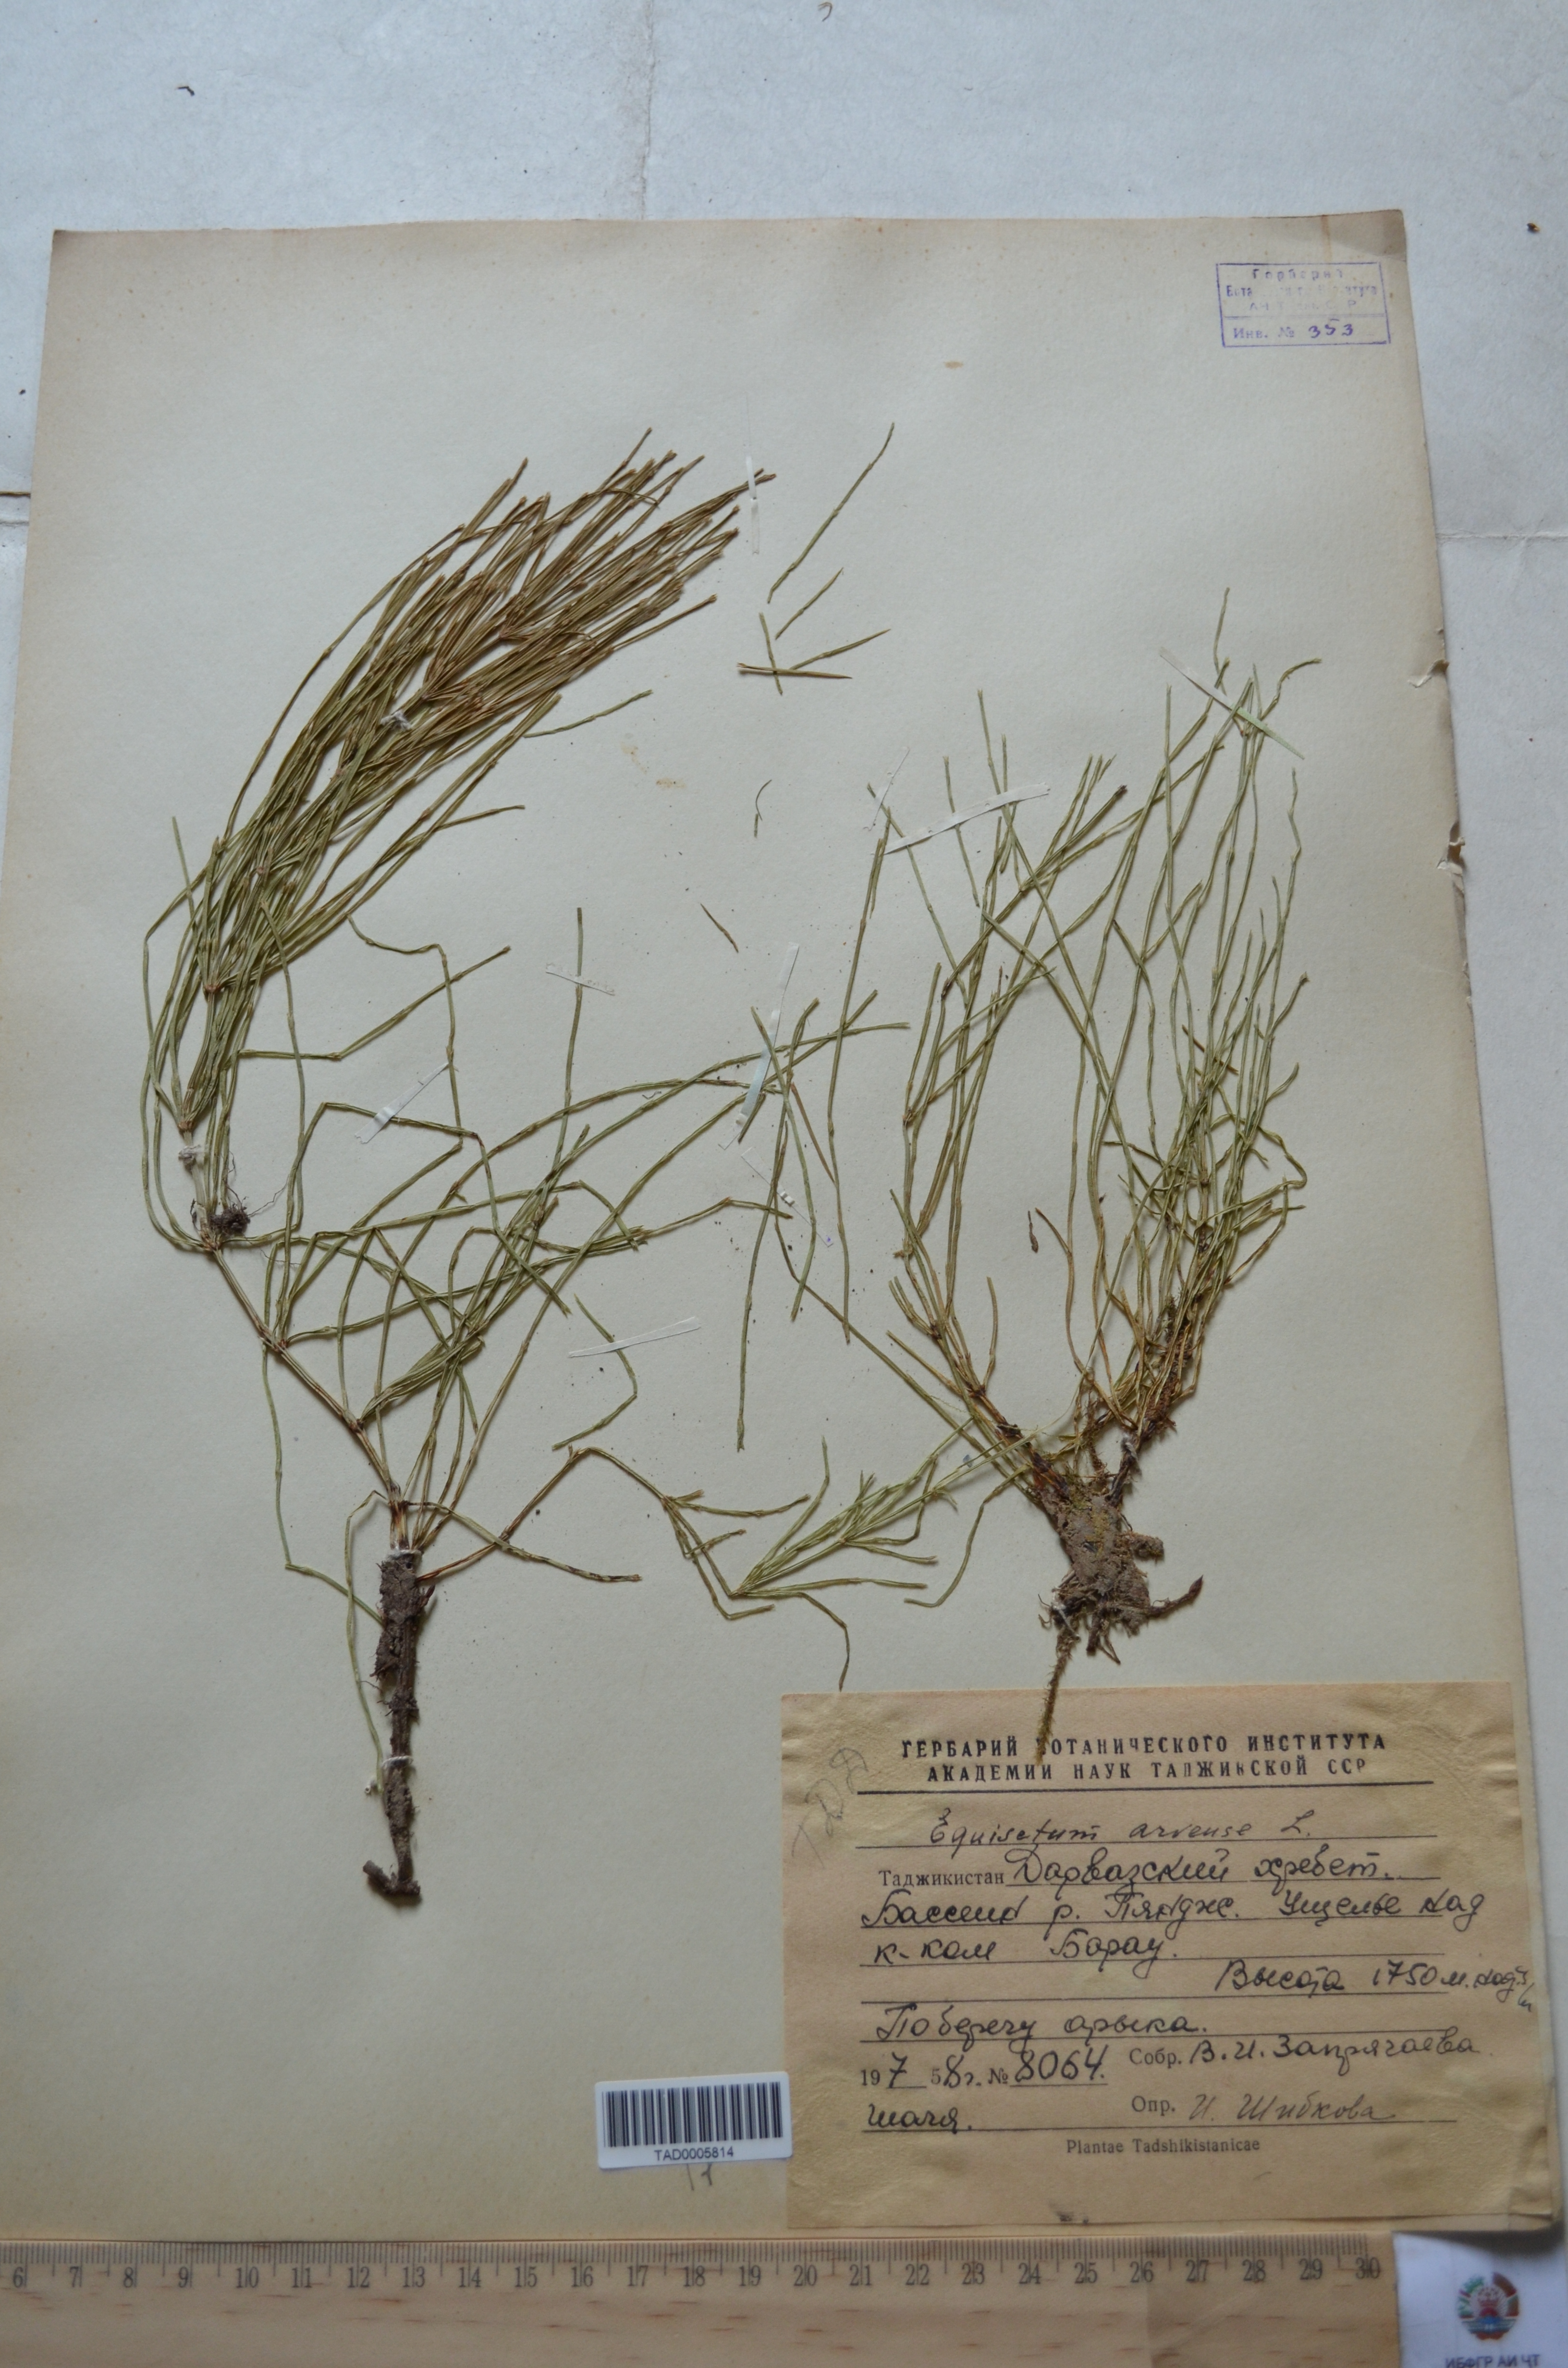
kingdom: Plantae
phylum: Tracheophyta
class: Polypodiopsida
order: Equisetales
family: Equisetaceae
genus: Equisetum
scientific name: Equisetum arvense
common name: Field horsetail
